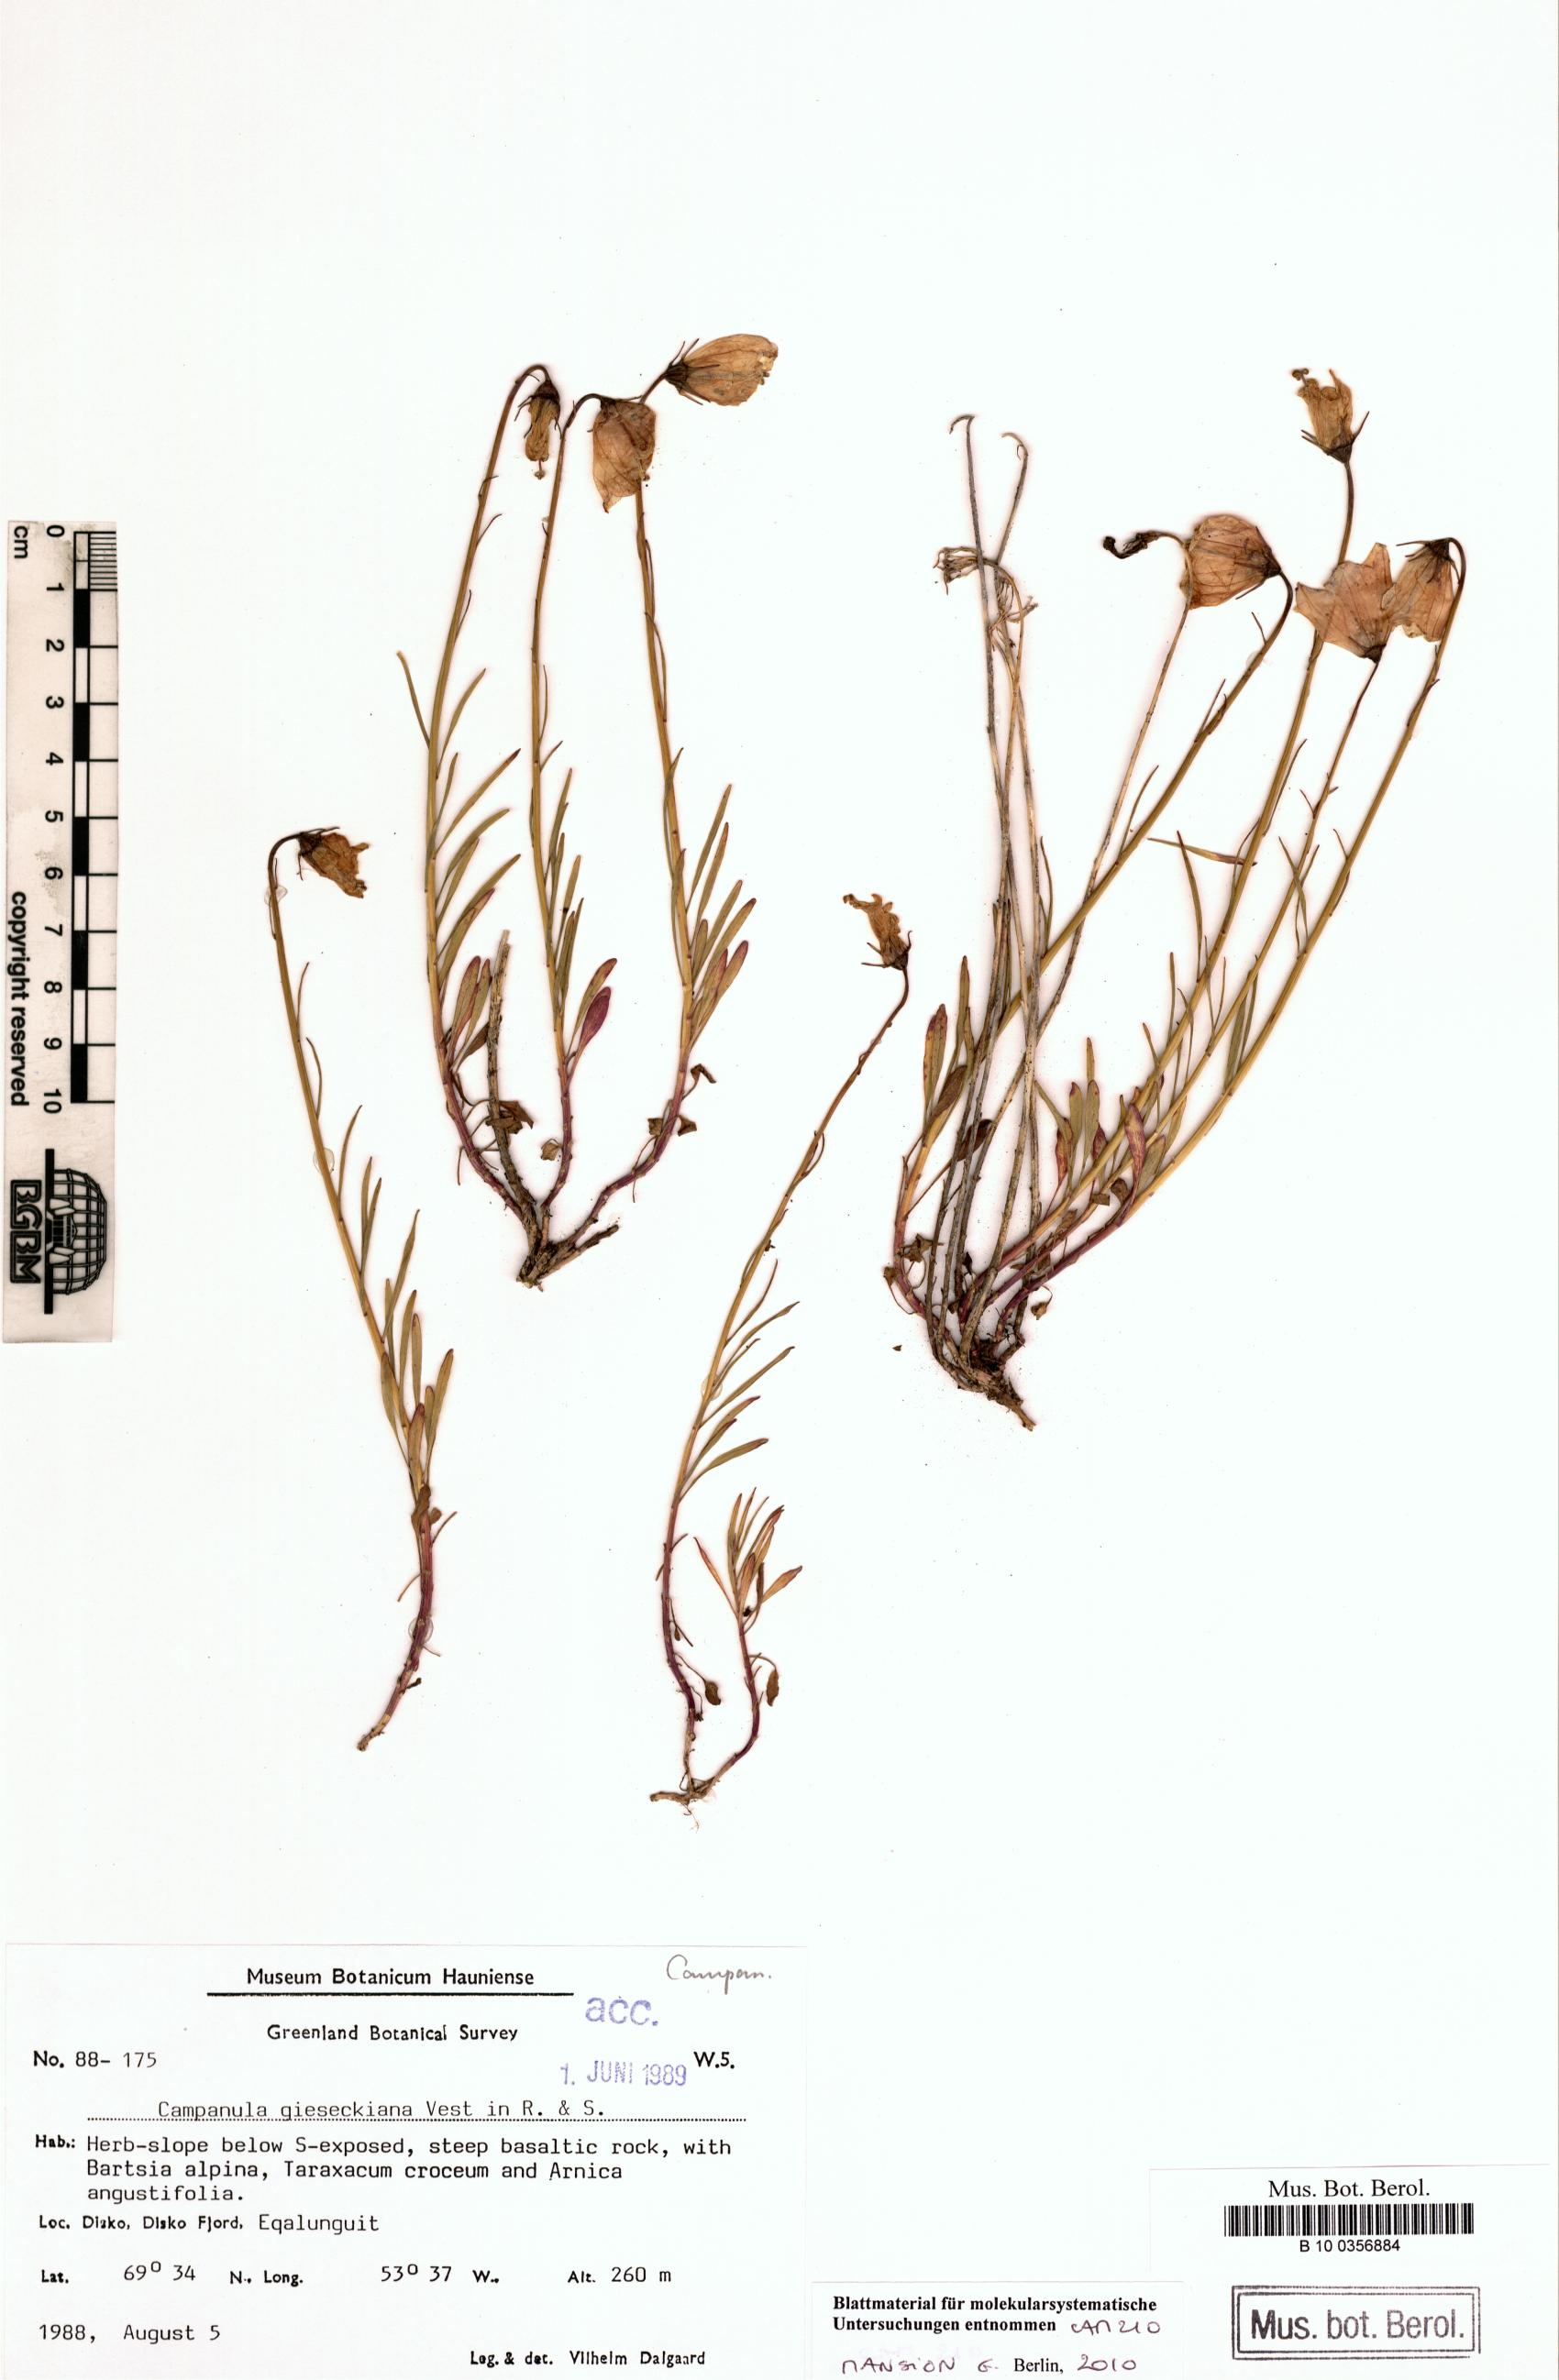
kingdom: Plantae
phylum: Tracheophyta
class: Magnoliopsida
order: Asterales
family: Campanulaceae
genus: Campanula
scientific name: Campanula rotundifolia
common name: Harebell
